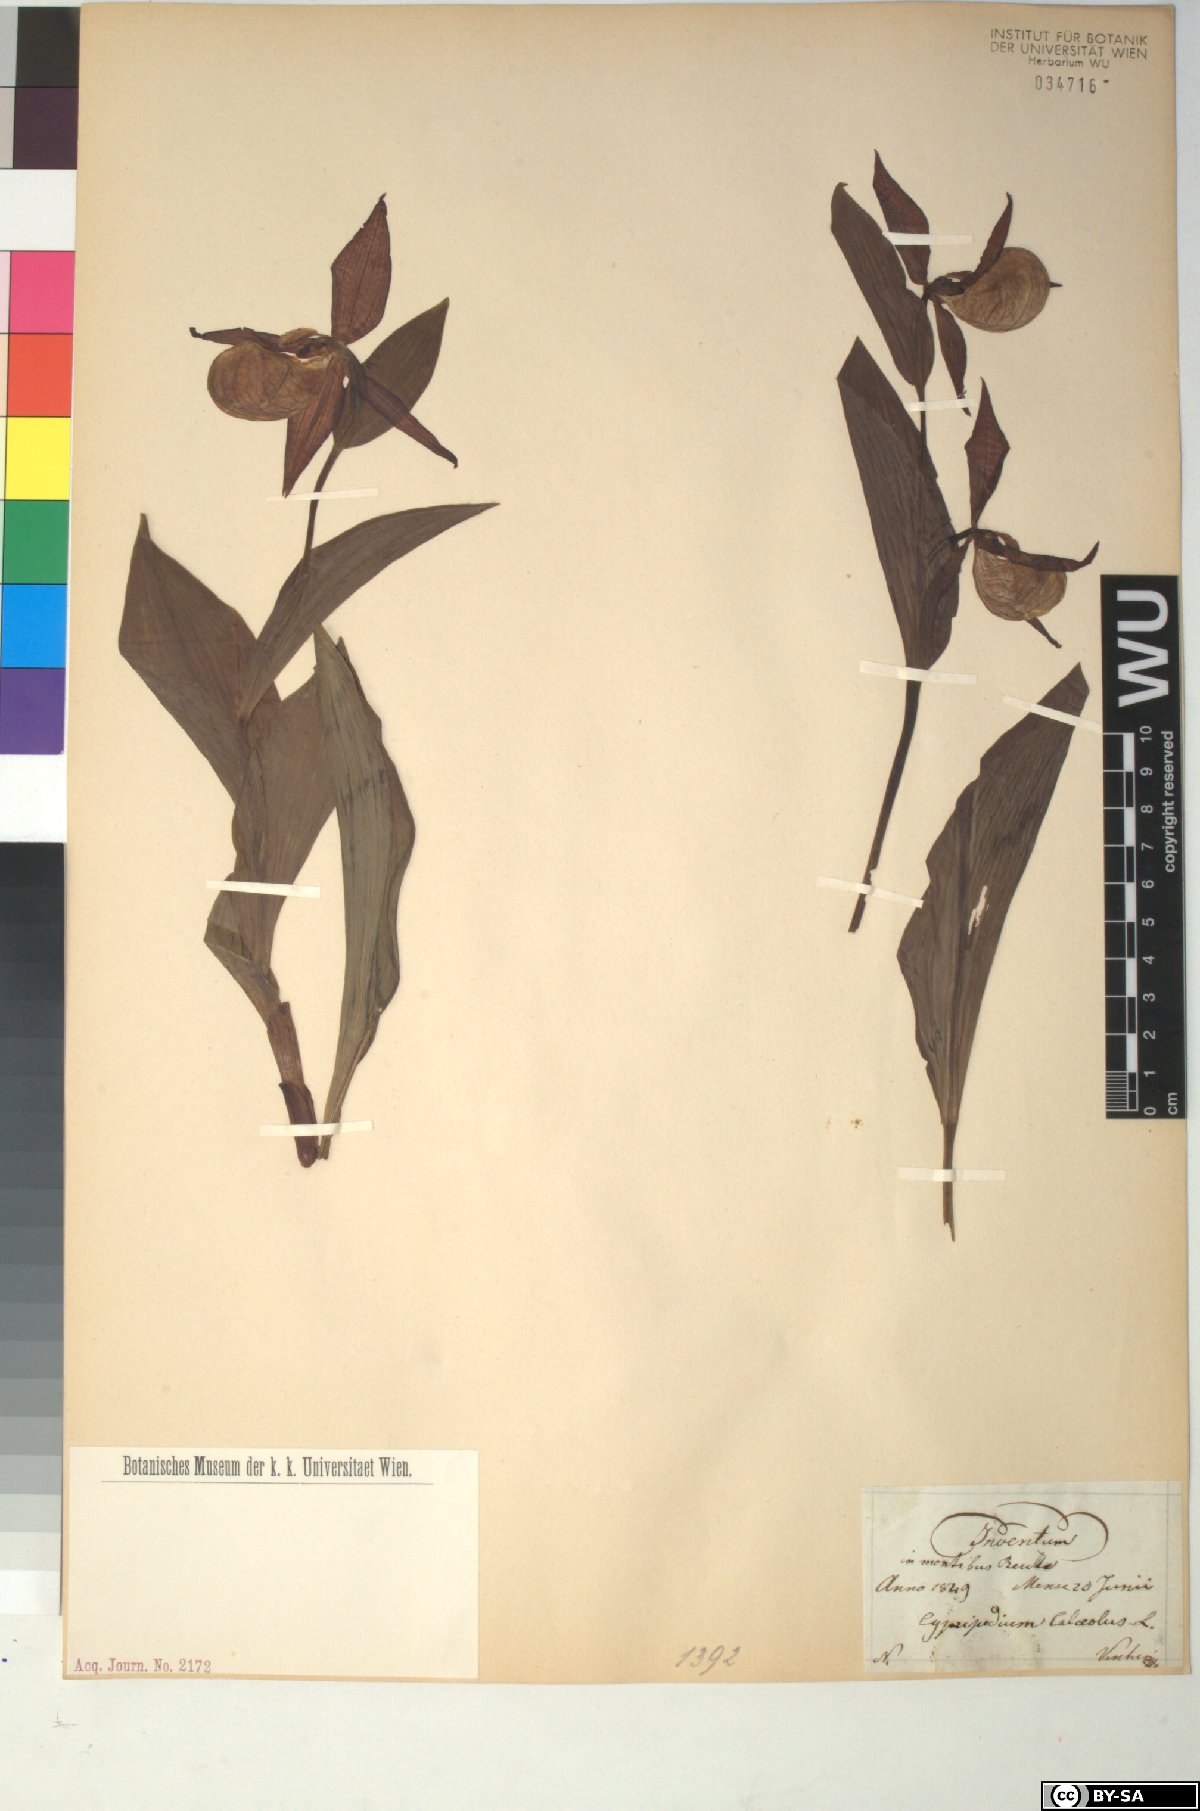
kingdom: Plantae
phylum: Tracheophyta
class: Liliopsida
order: Asparagales
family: Orchidaceae
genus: Cypripedium
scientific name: Cypripedium calceolus
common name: Lady's-slipper
